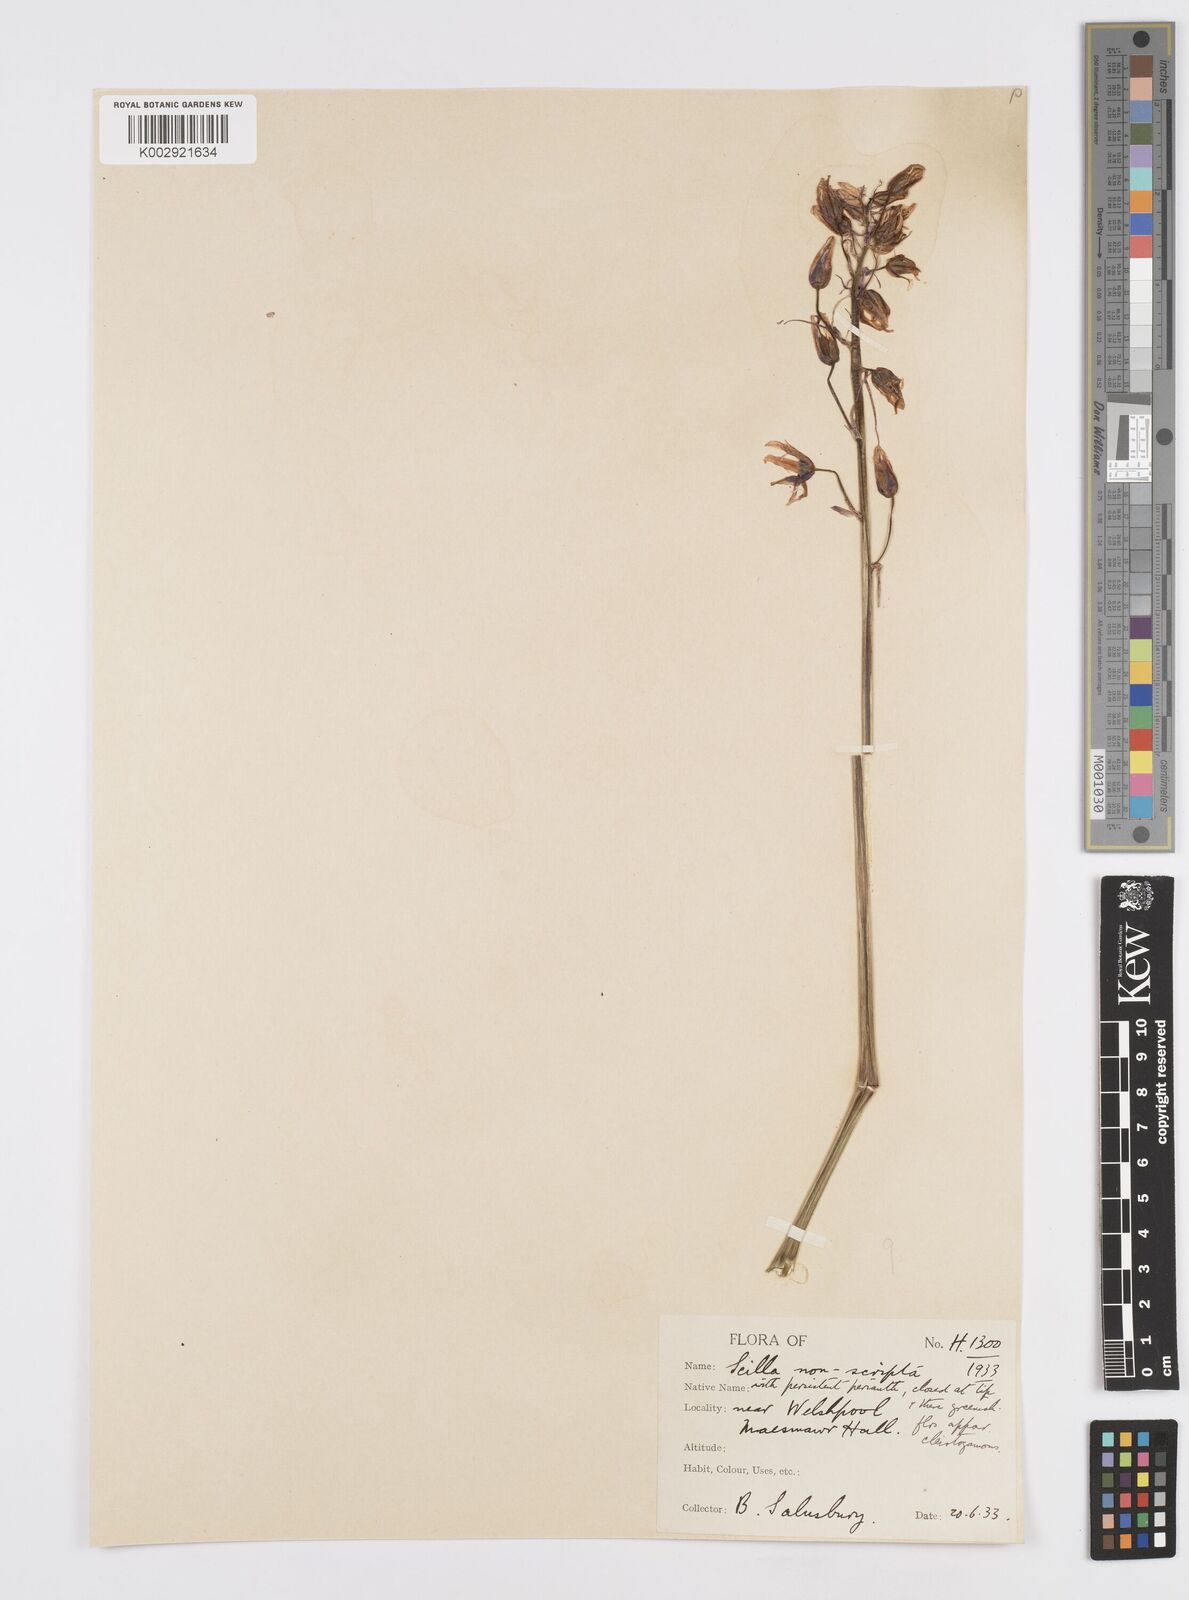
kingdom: Plantae
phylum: Tracheophyta
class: Liliopsida
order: Asparagales
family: Asparagaceae
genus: Hyacinthoides
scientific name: Hyacinthoides non-scripta
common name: Bluebell
